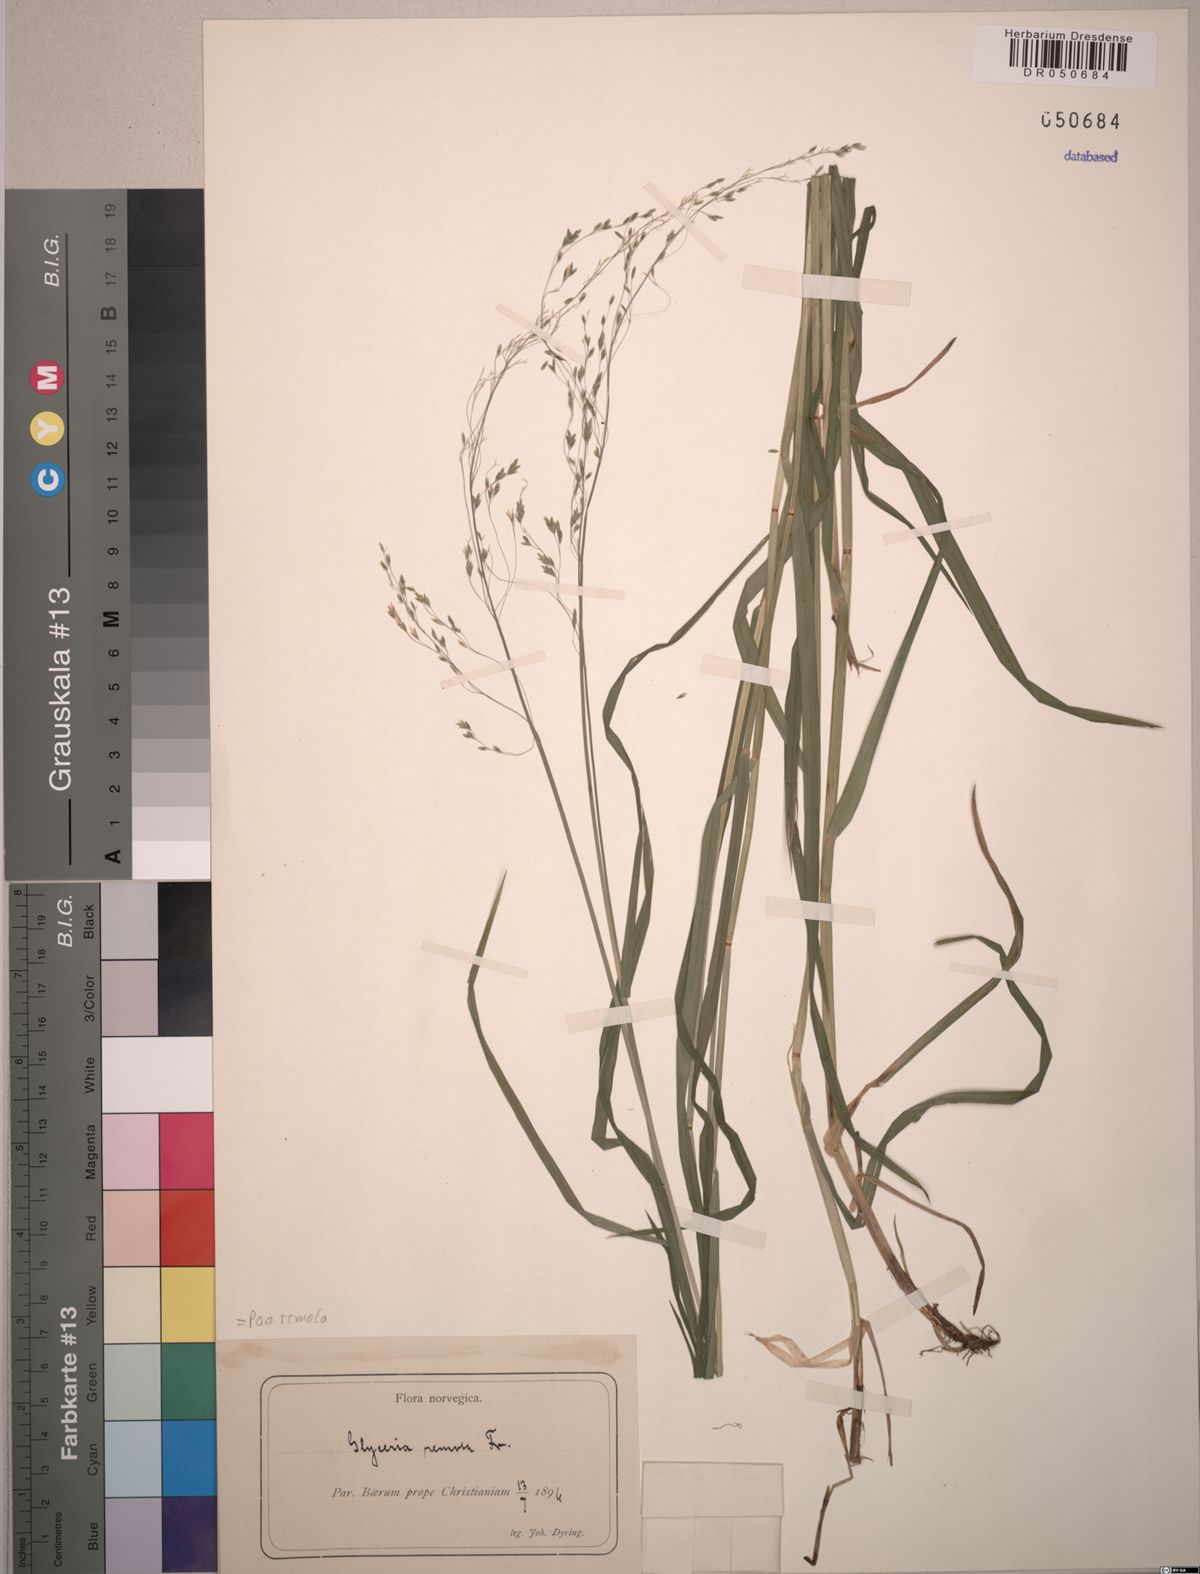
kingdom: Plantae
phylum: Tracheophyta
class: Liliopsida
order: Poales
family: Poaceae
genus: Poa
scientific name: Poa remota
